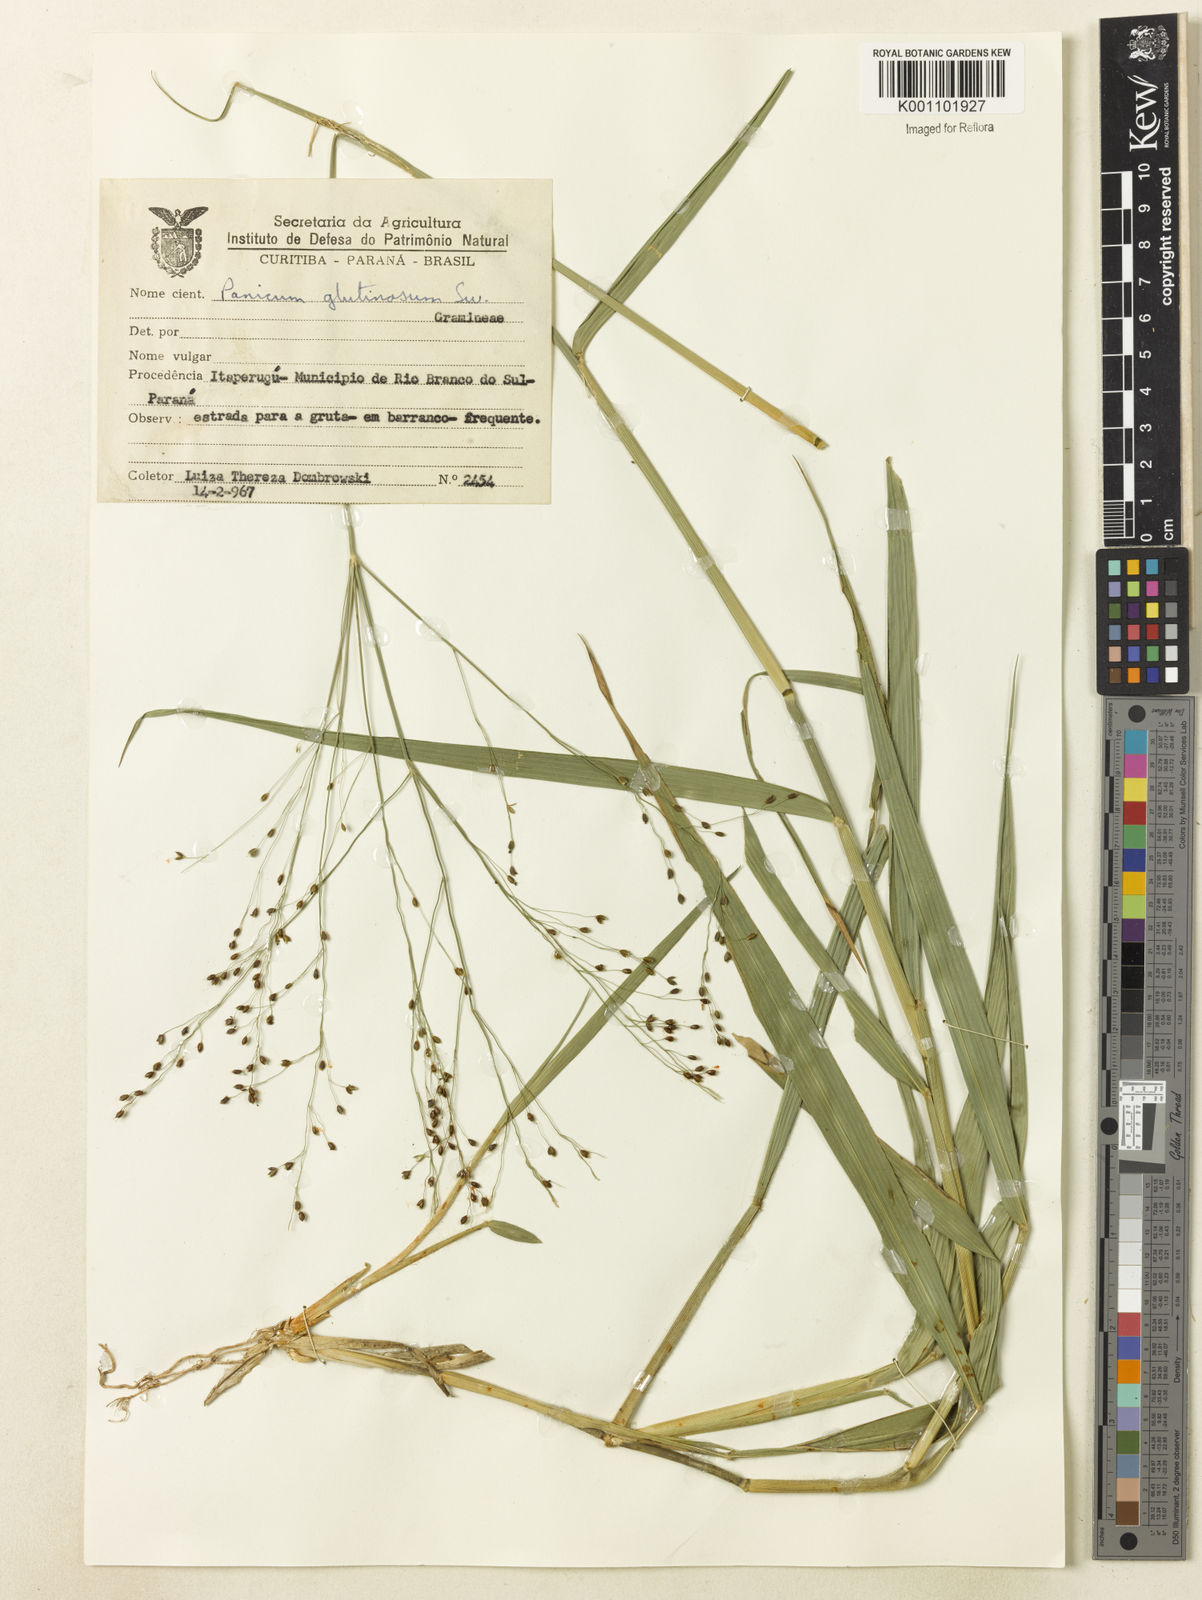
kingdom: Plantae
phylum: Tracheophyta
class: Liliopsida
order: Poales
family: Poaceae
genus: Homolepis
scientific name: Homolepis glutinosa
